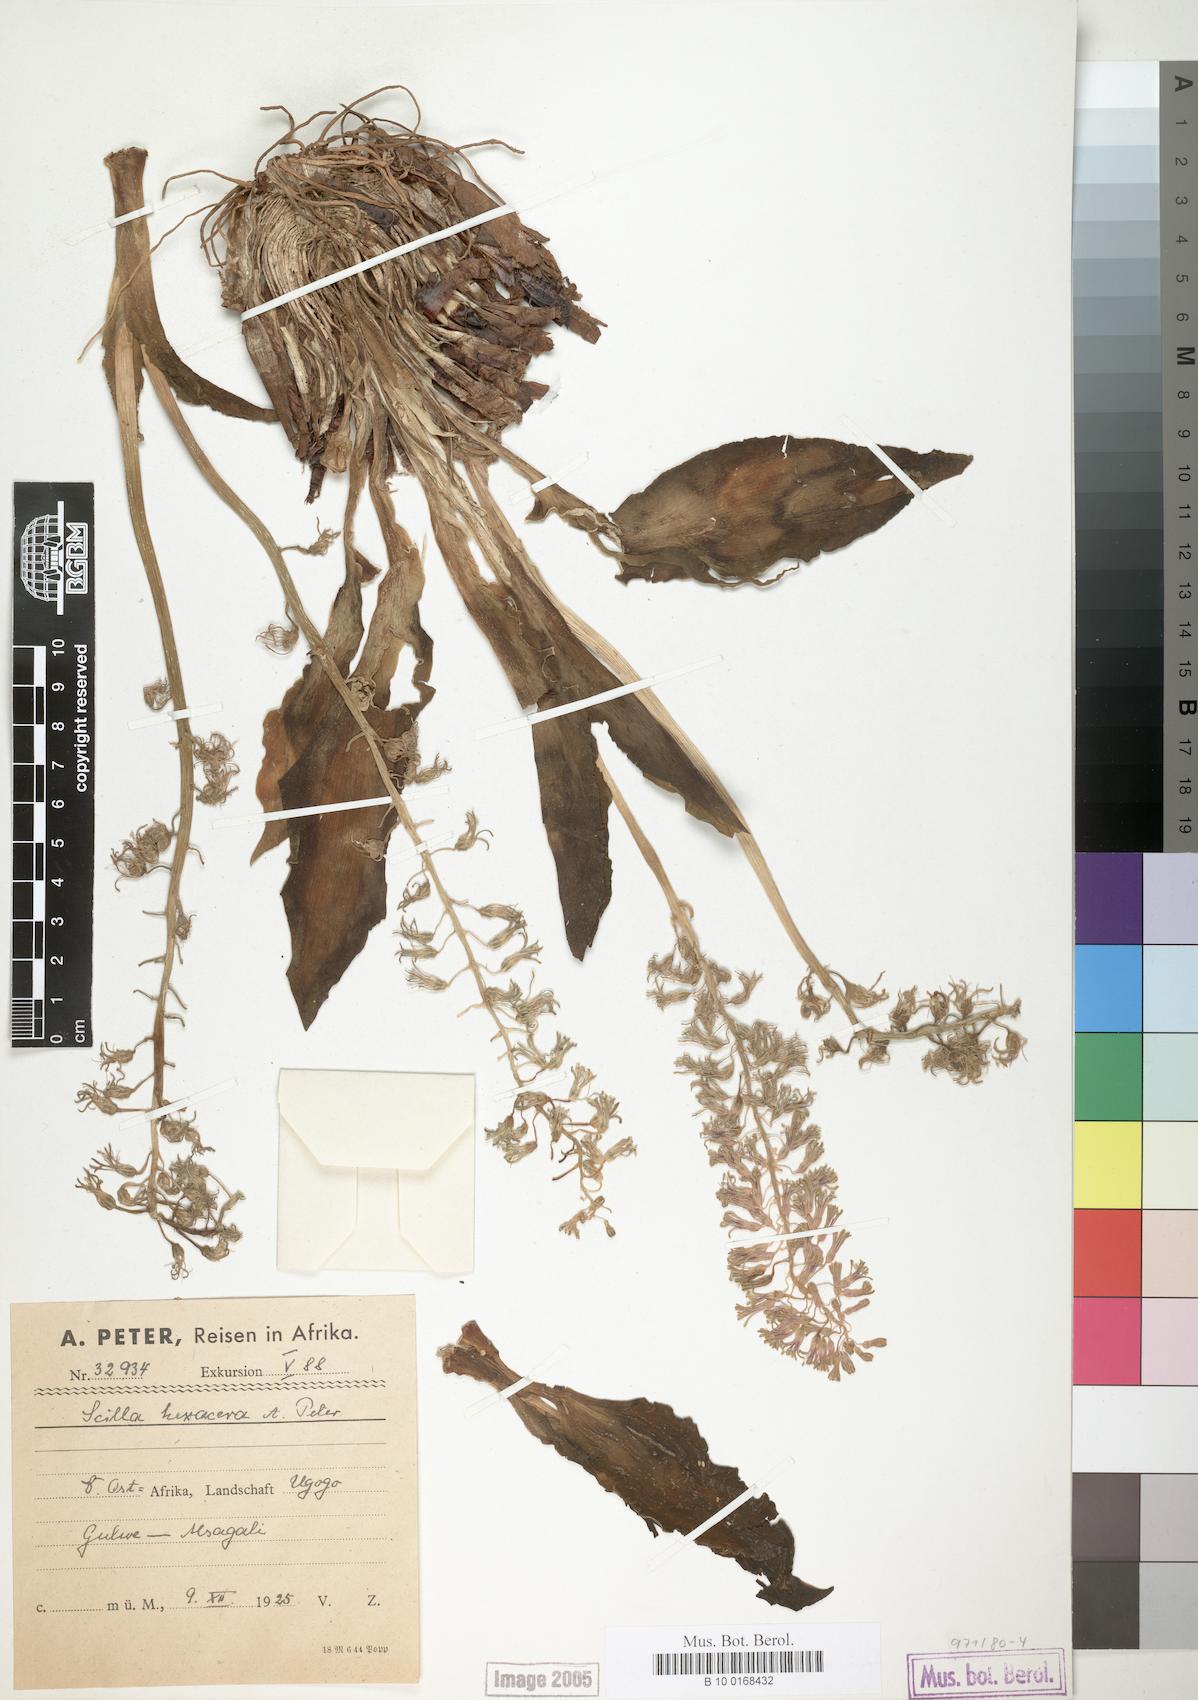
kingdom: Plantae
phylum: Tracheophyta
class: Liliopsida
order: Asparagales
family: Asparagaceae
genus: Scilla
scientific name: Scilla
